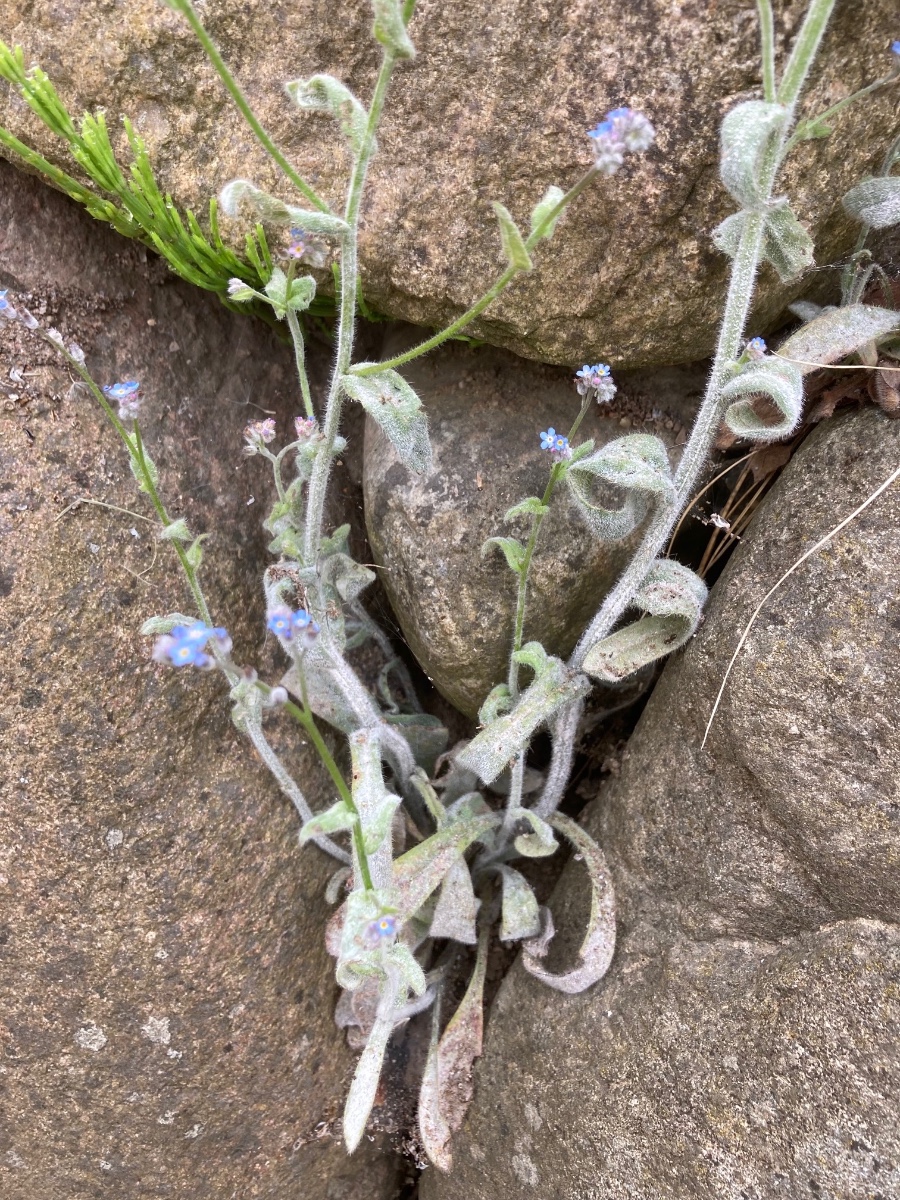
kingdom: Fungi
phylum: Ascomycota
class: Leotiomycetes
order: Helotiales
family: Erysiphaceae
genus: Golovinomyces
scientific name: Golovinomyces asperifolii
